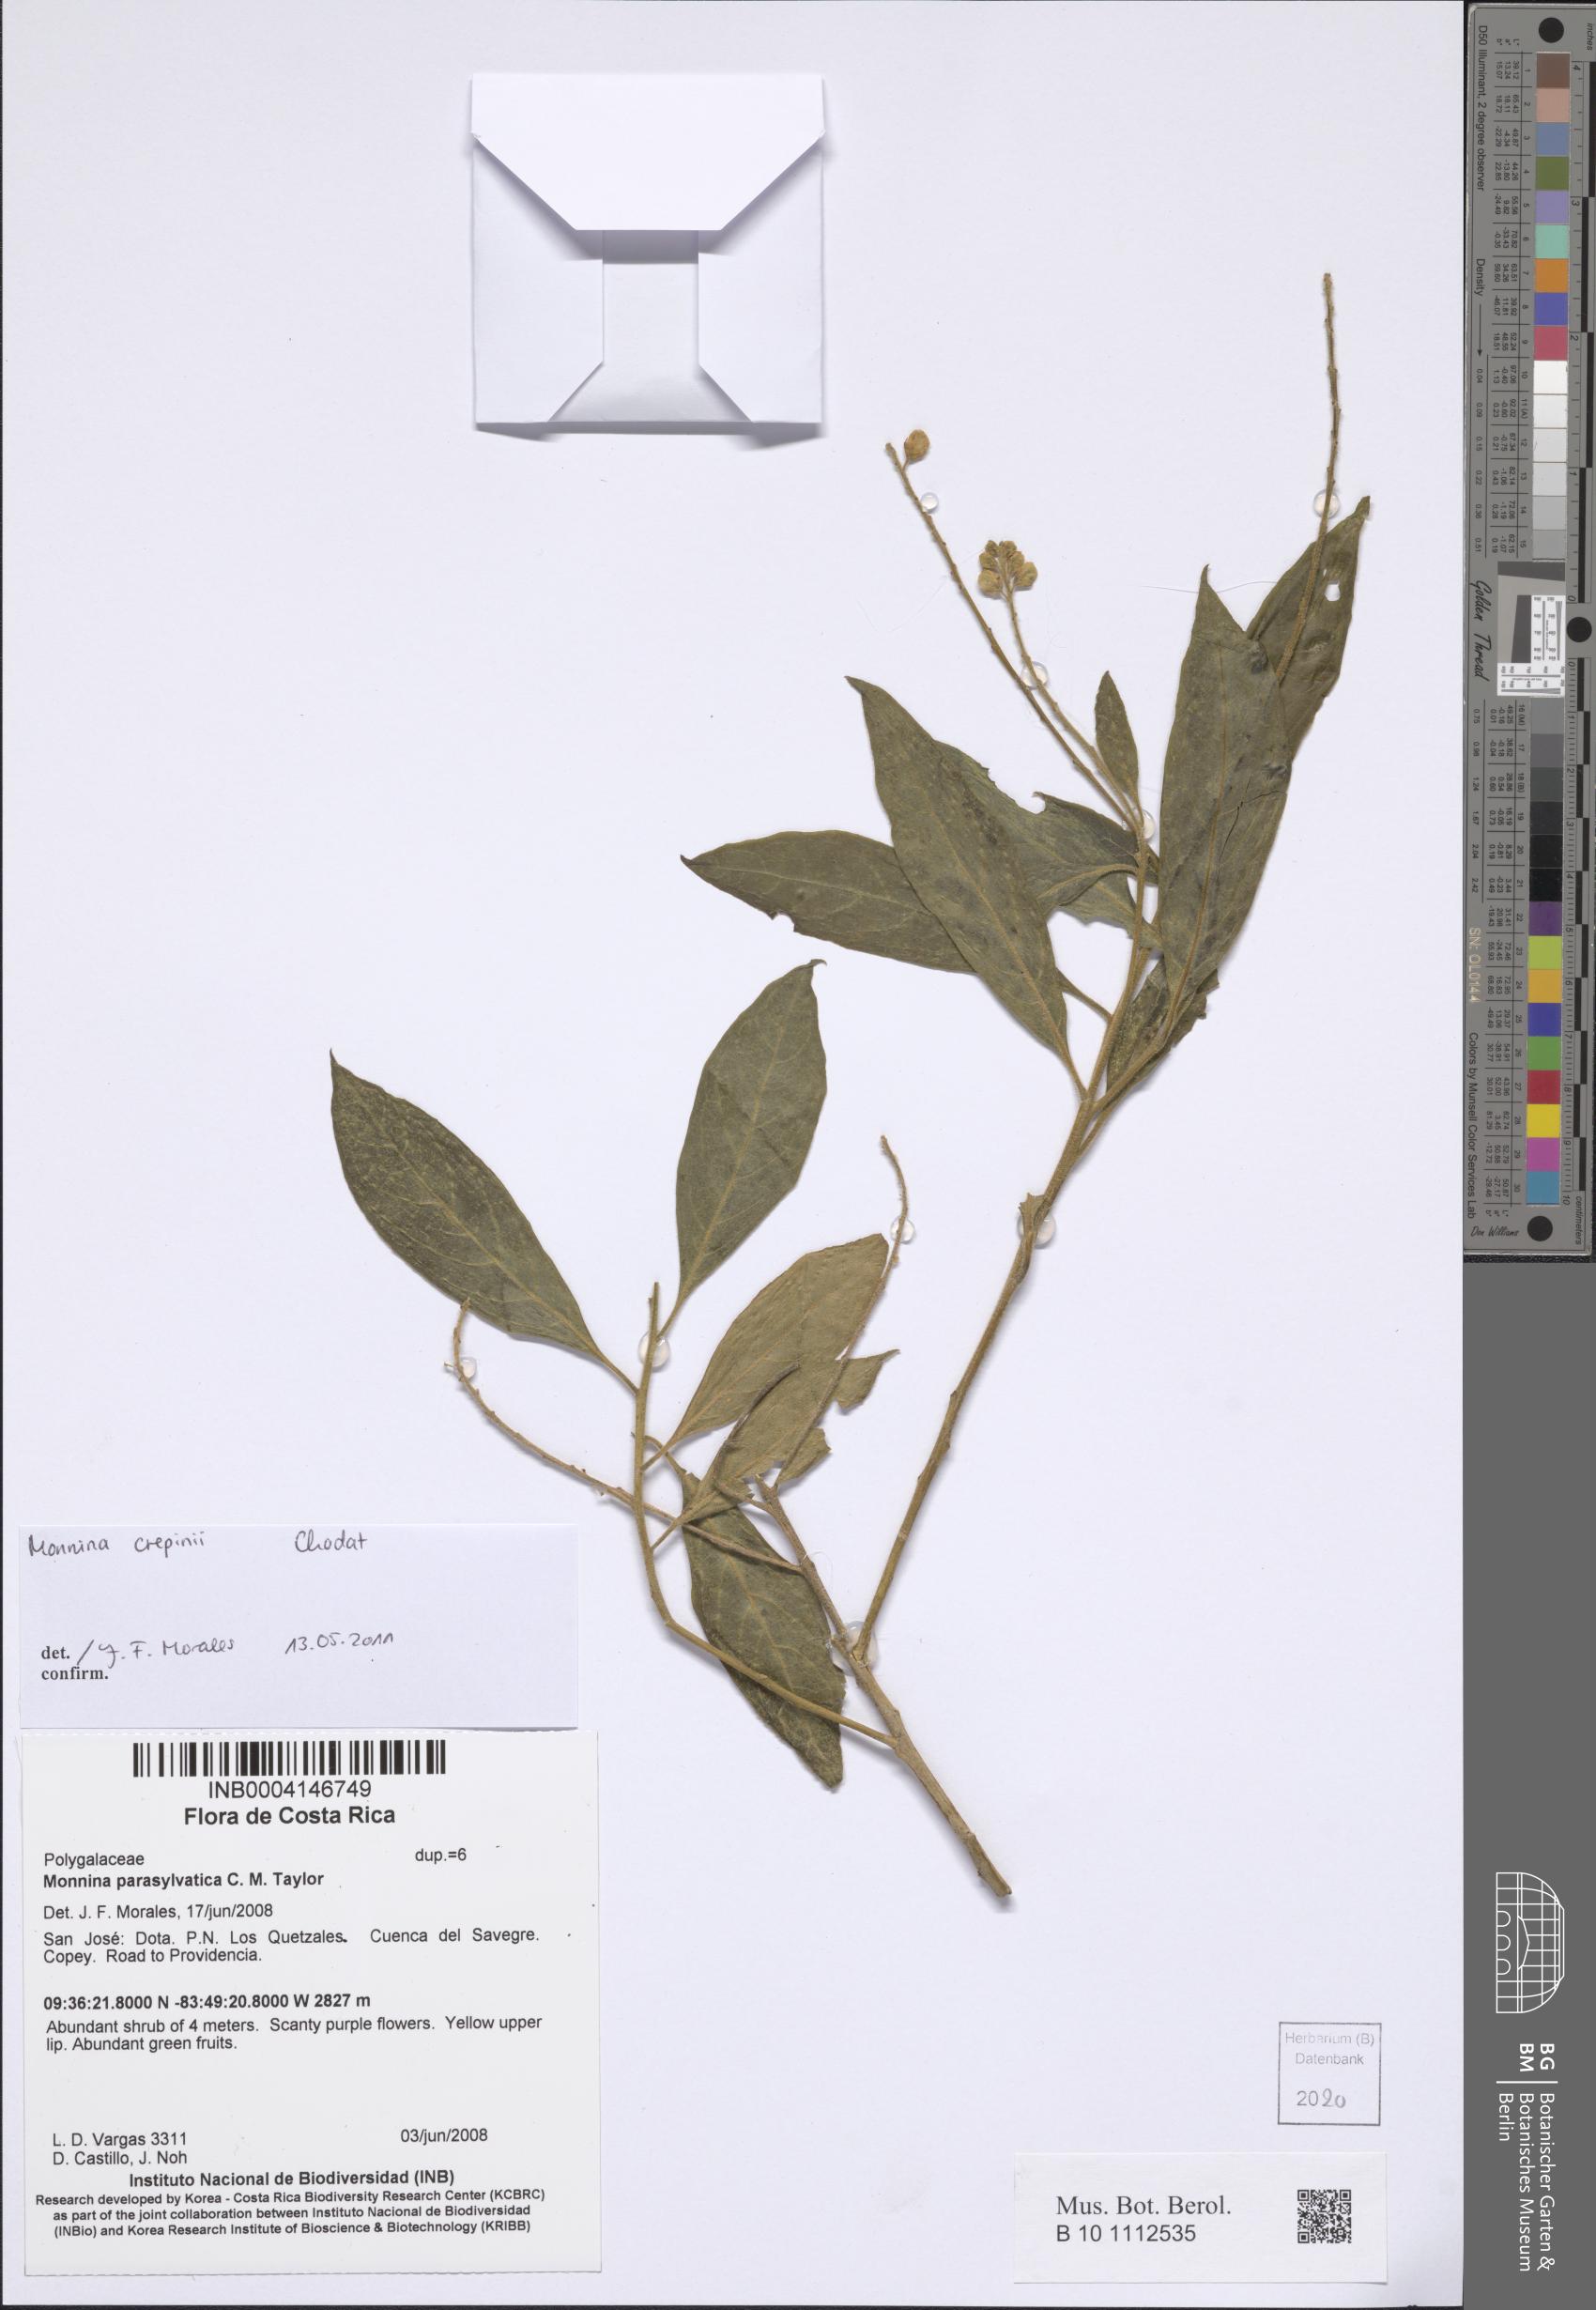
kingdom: Plantae
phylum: Tracheophyta
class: Magnoliopsida
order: Fabales
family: Polygalaceae
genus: Monnina
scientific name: Monnina crepinii
